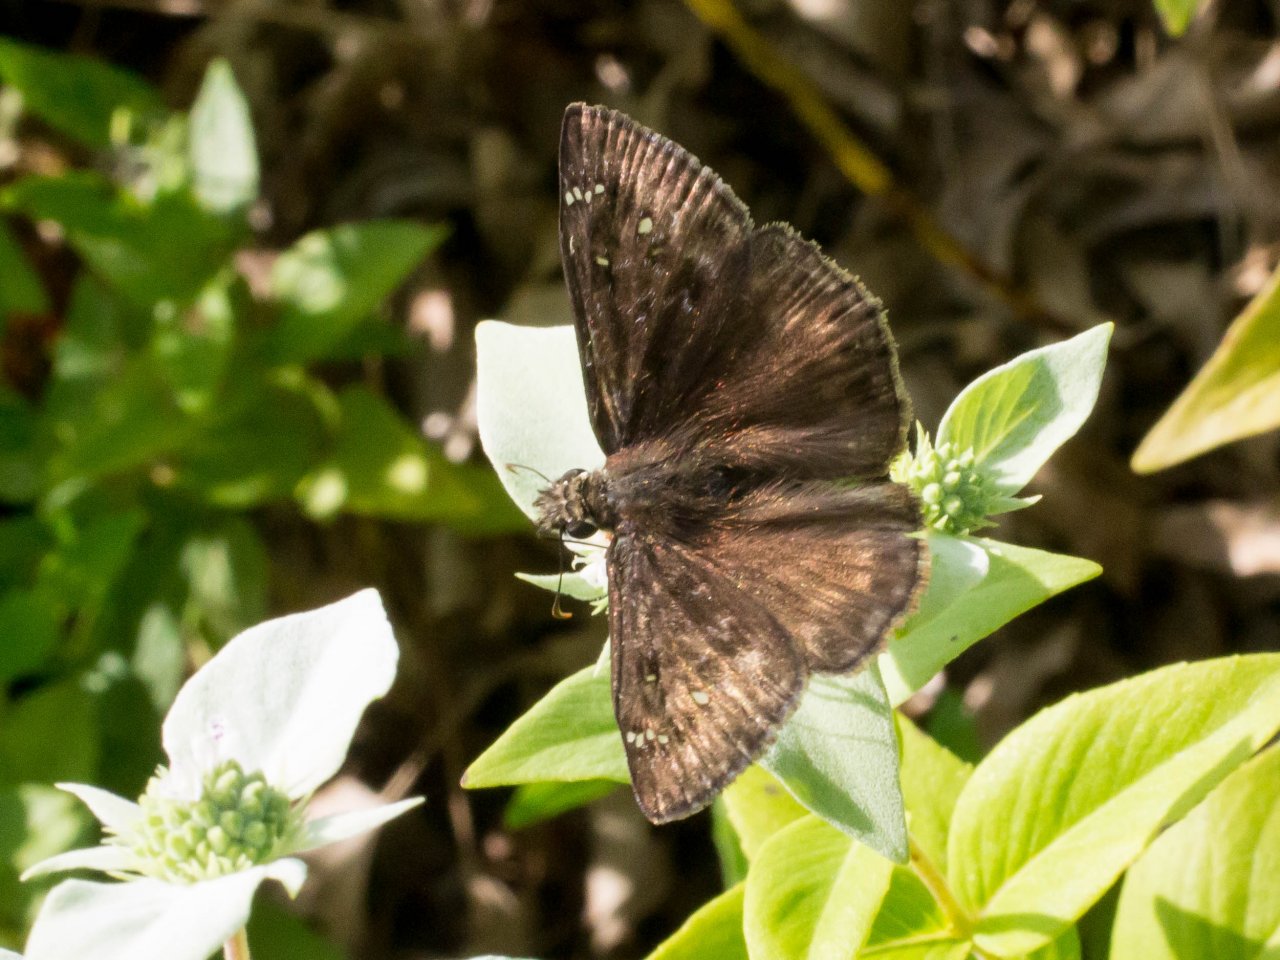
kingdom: Animalia
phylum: Arthropoda
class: Insecta
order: Lepidoptera
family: Hesperiidae
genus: Gesta
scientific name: Gesta
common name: Horace's Duskywing
